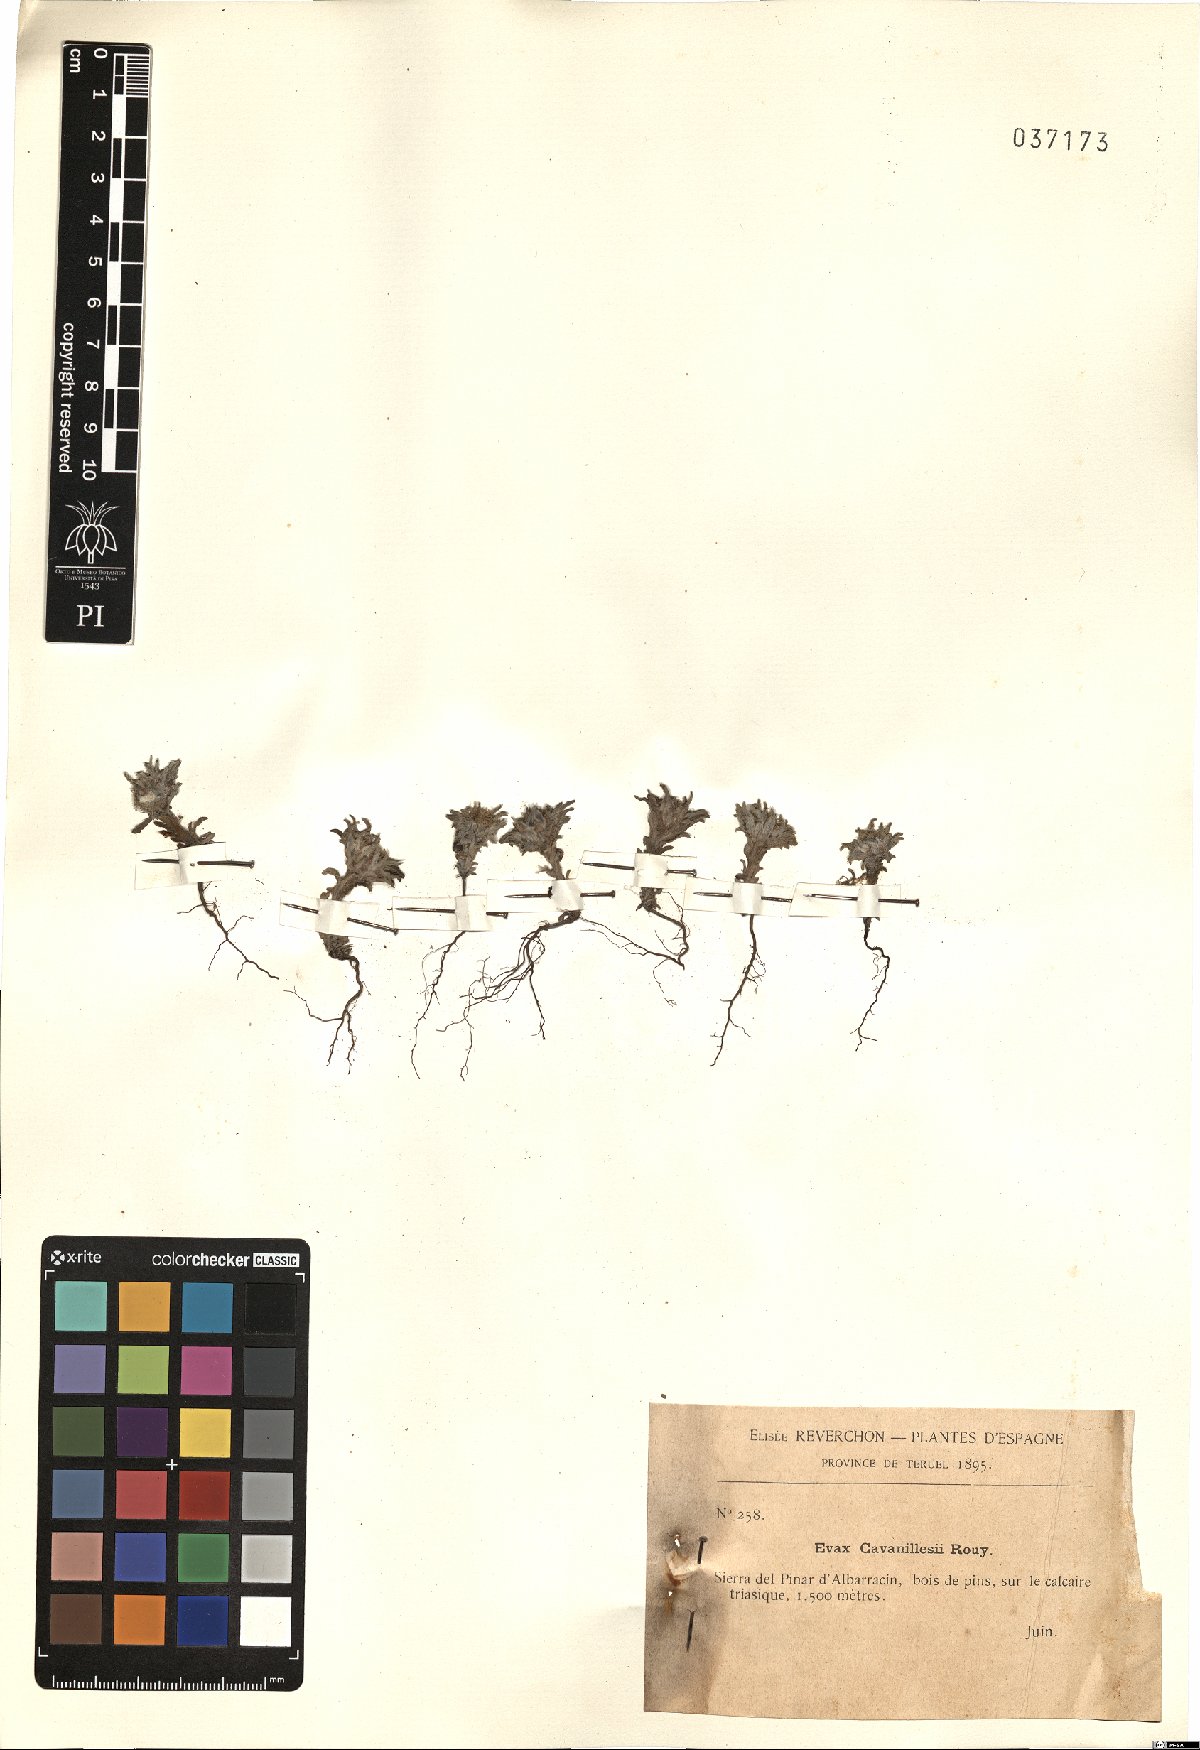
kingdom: Plantae
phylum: Tracheophyta
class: Magnoliopsida
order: Asterales
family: Asteraceae
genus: Filago
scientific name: Filago carpetana
